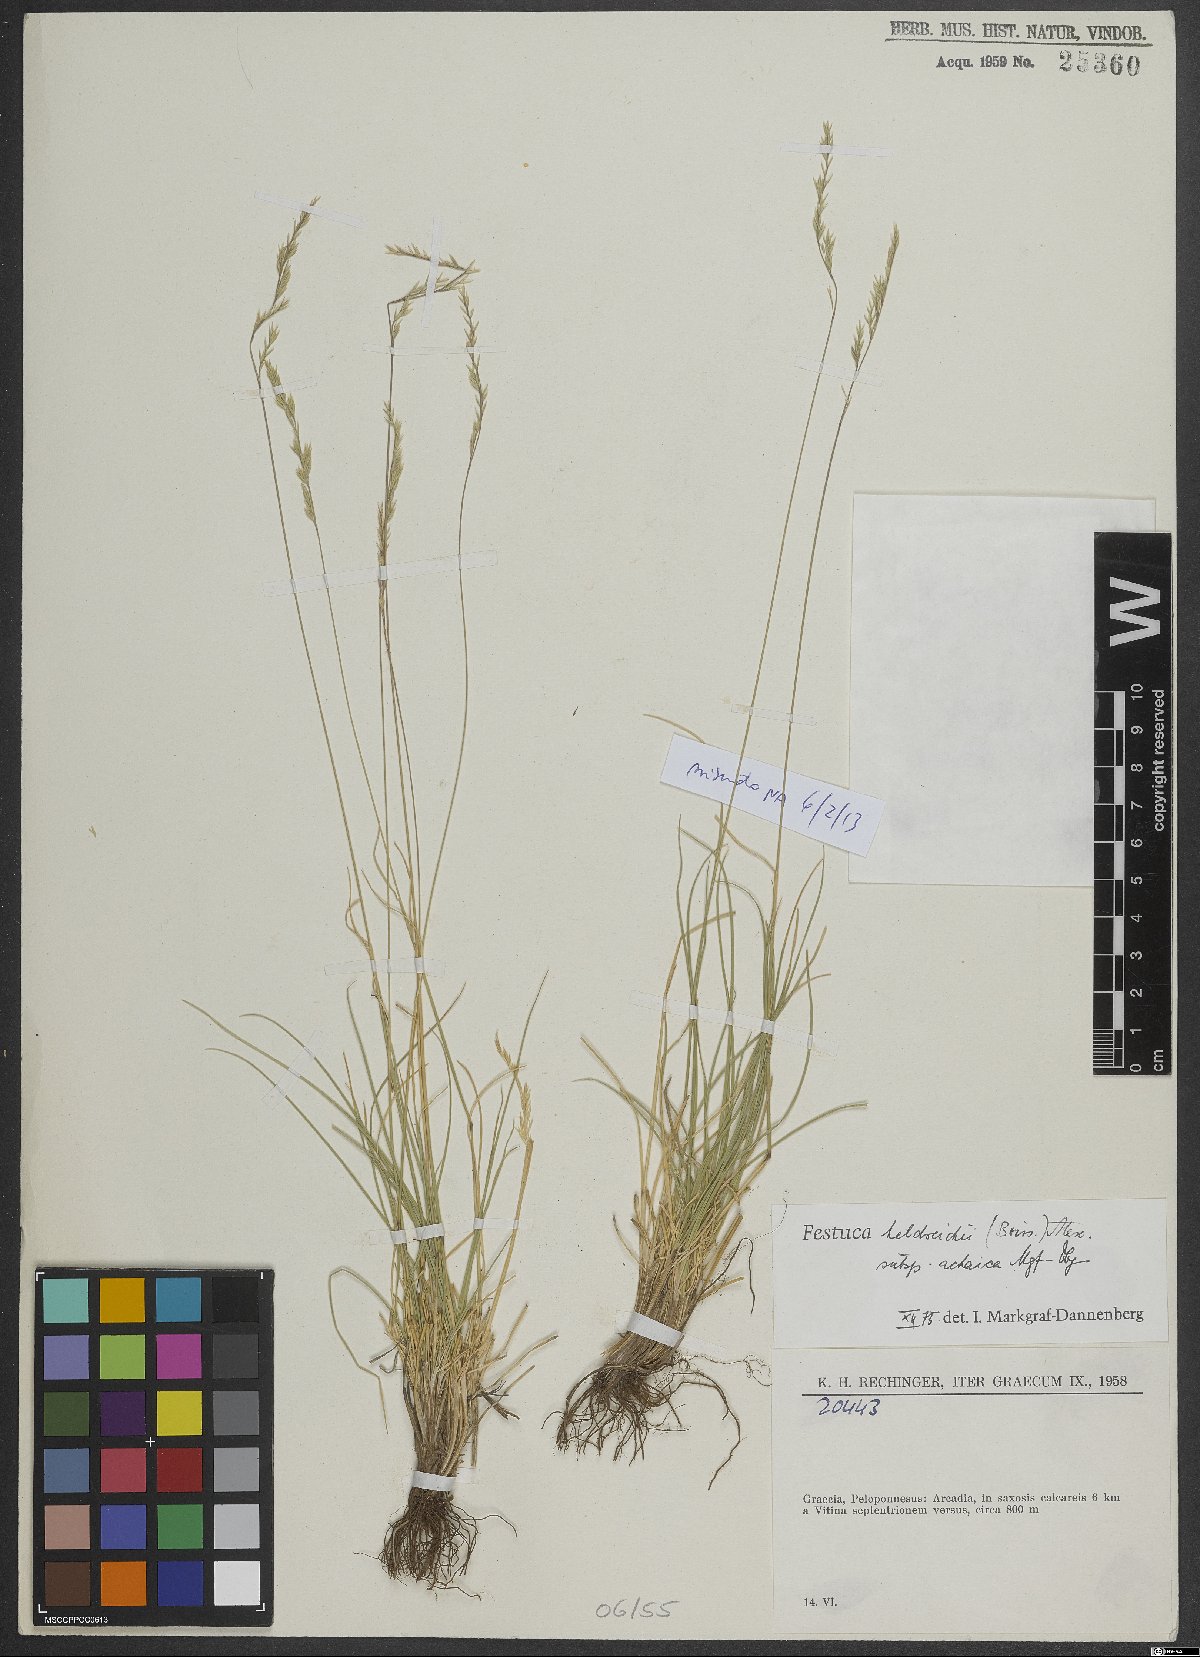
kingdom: Plantae
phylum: Tracheophyta
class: Liliopsida
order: Poales
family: Poaceae
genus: Festuca
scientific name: Festuca jeanpertii
